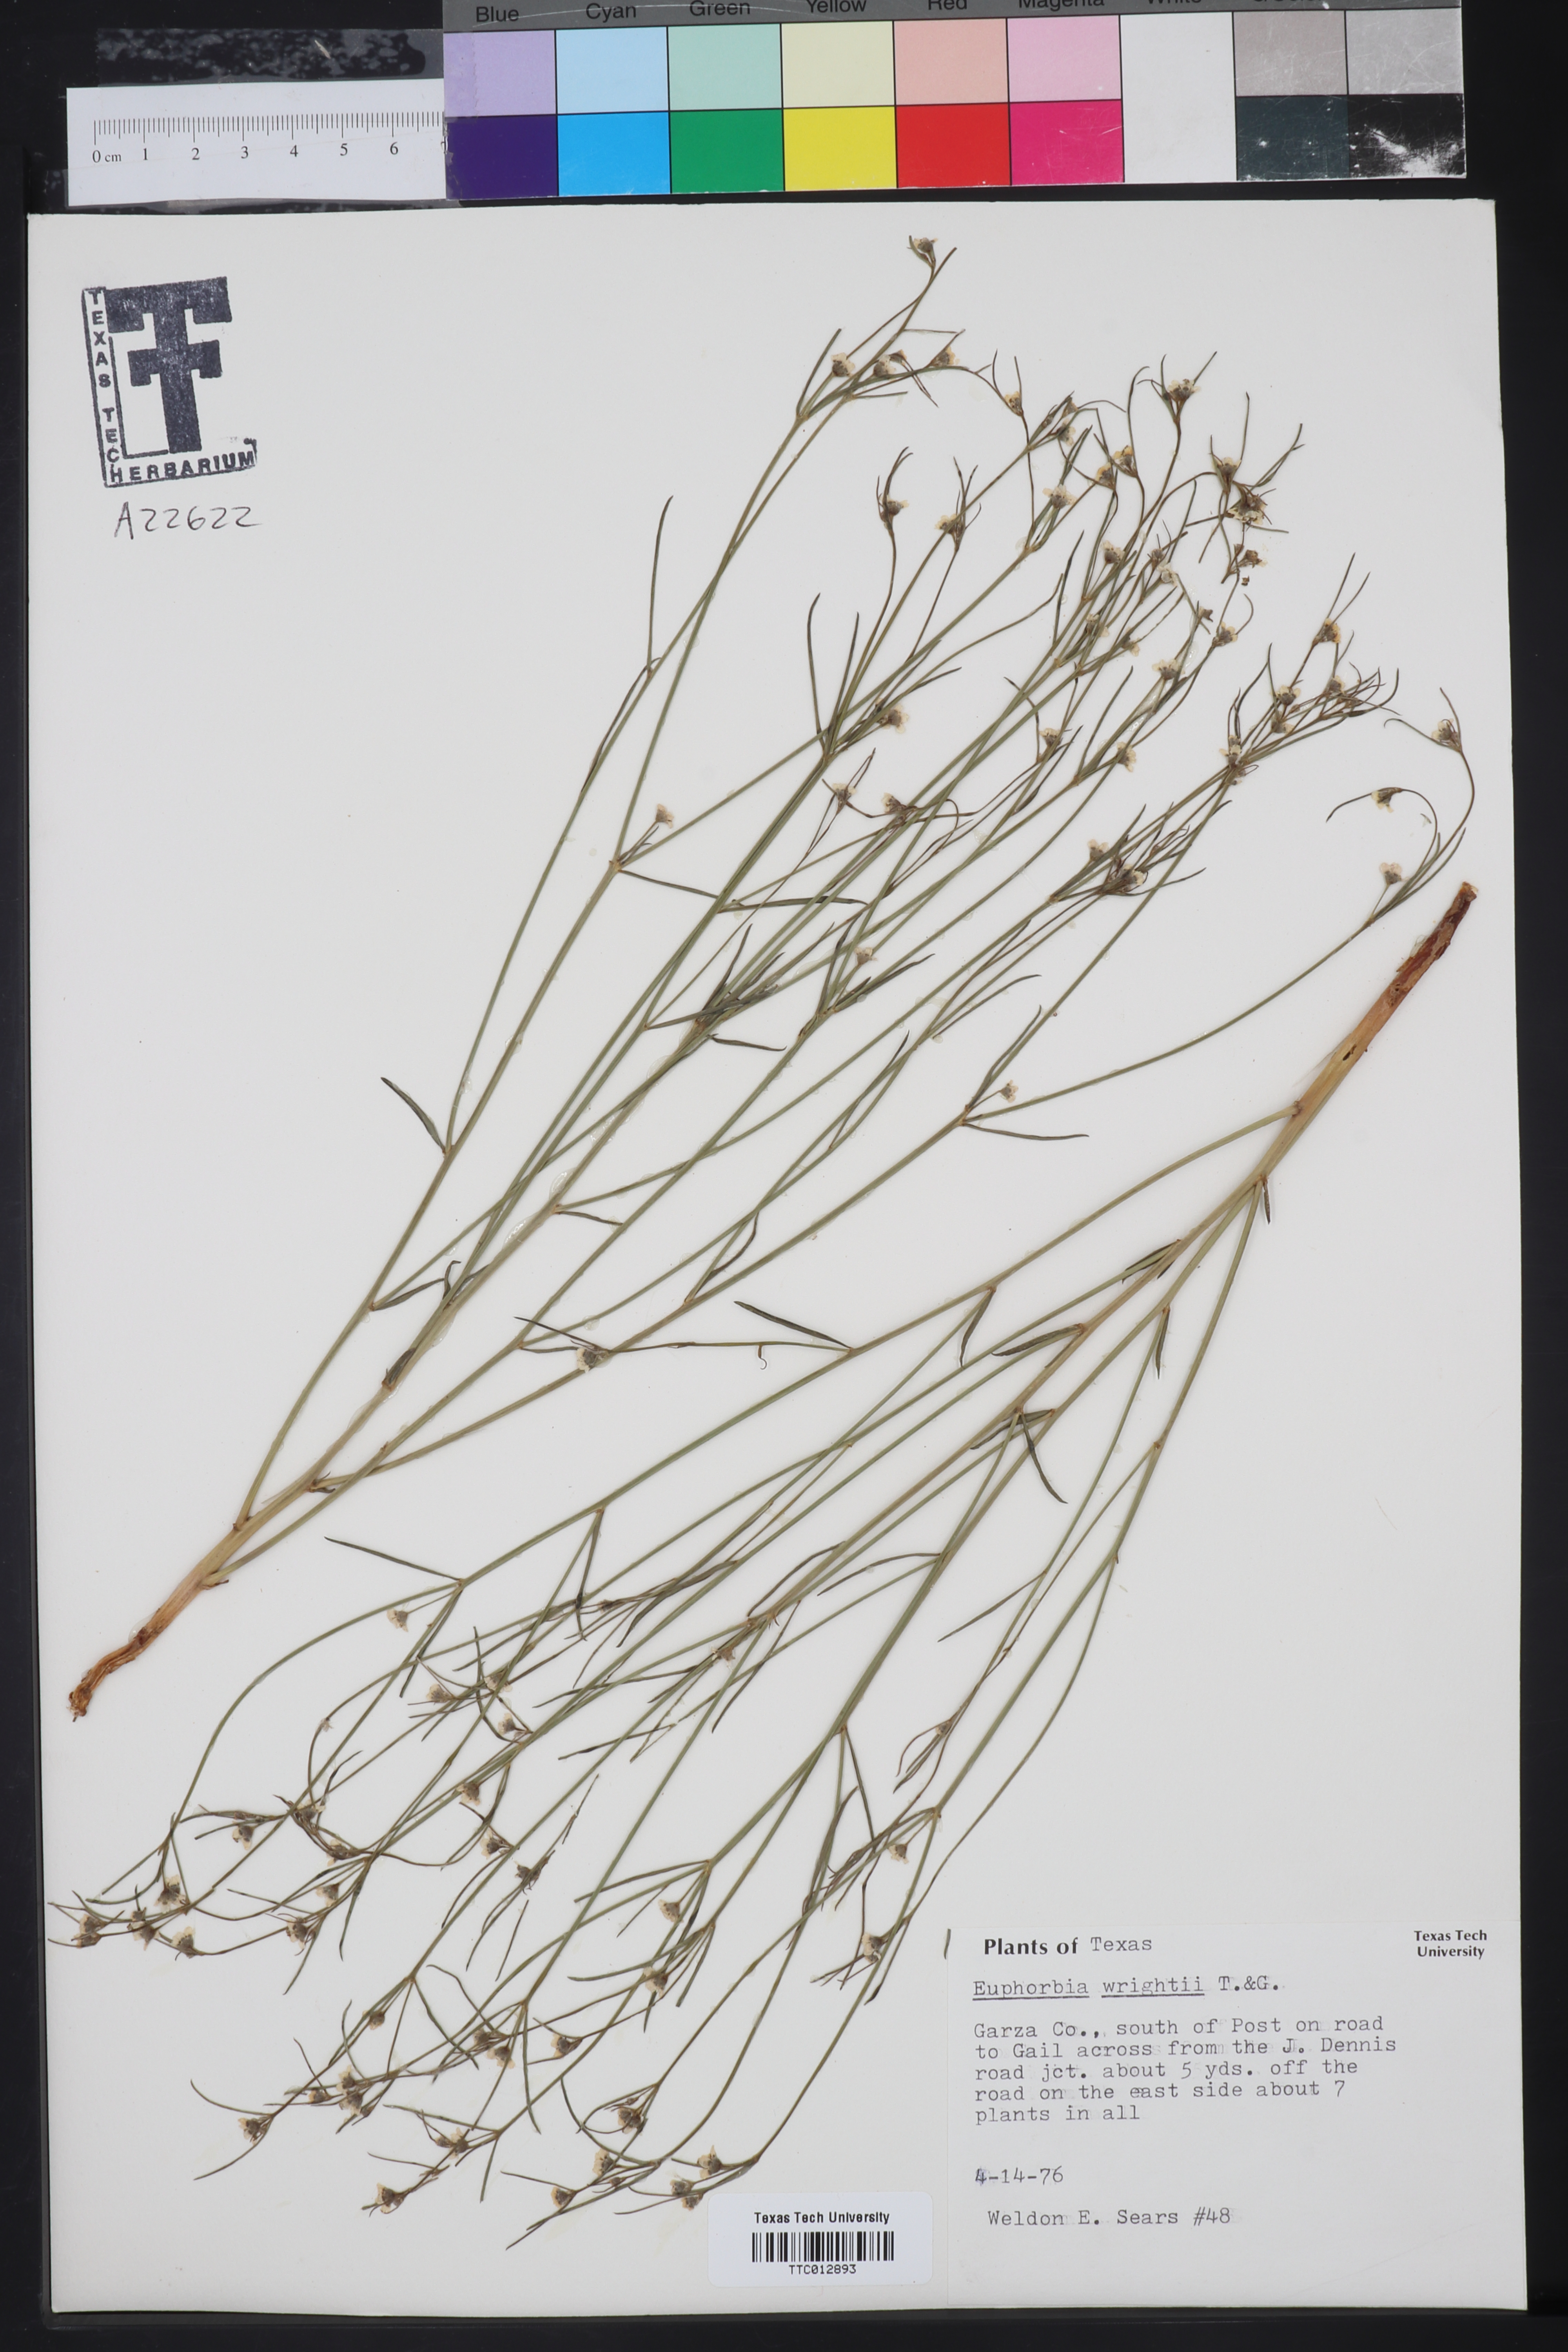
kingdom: Plantae
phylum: Tracheophyta
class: Magnoliopsida
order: Malpighiales
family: Euphorbiaceae
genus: Euphorbia
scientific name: Euphorbia wrightii
